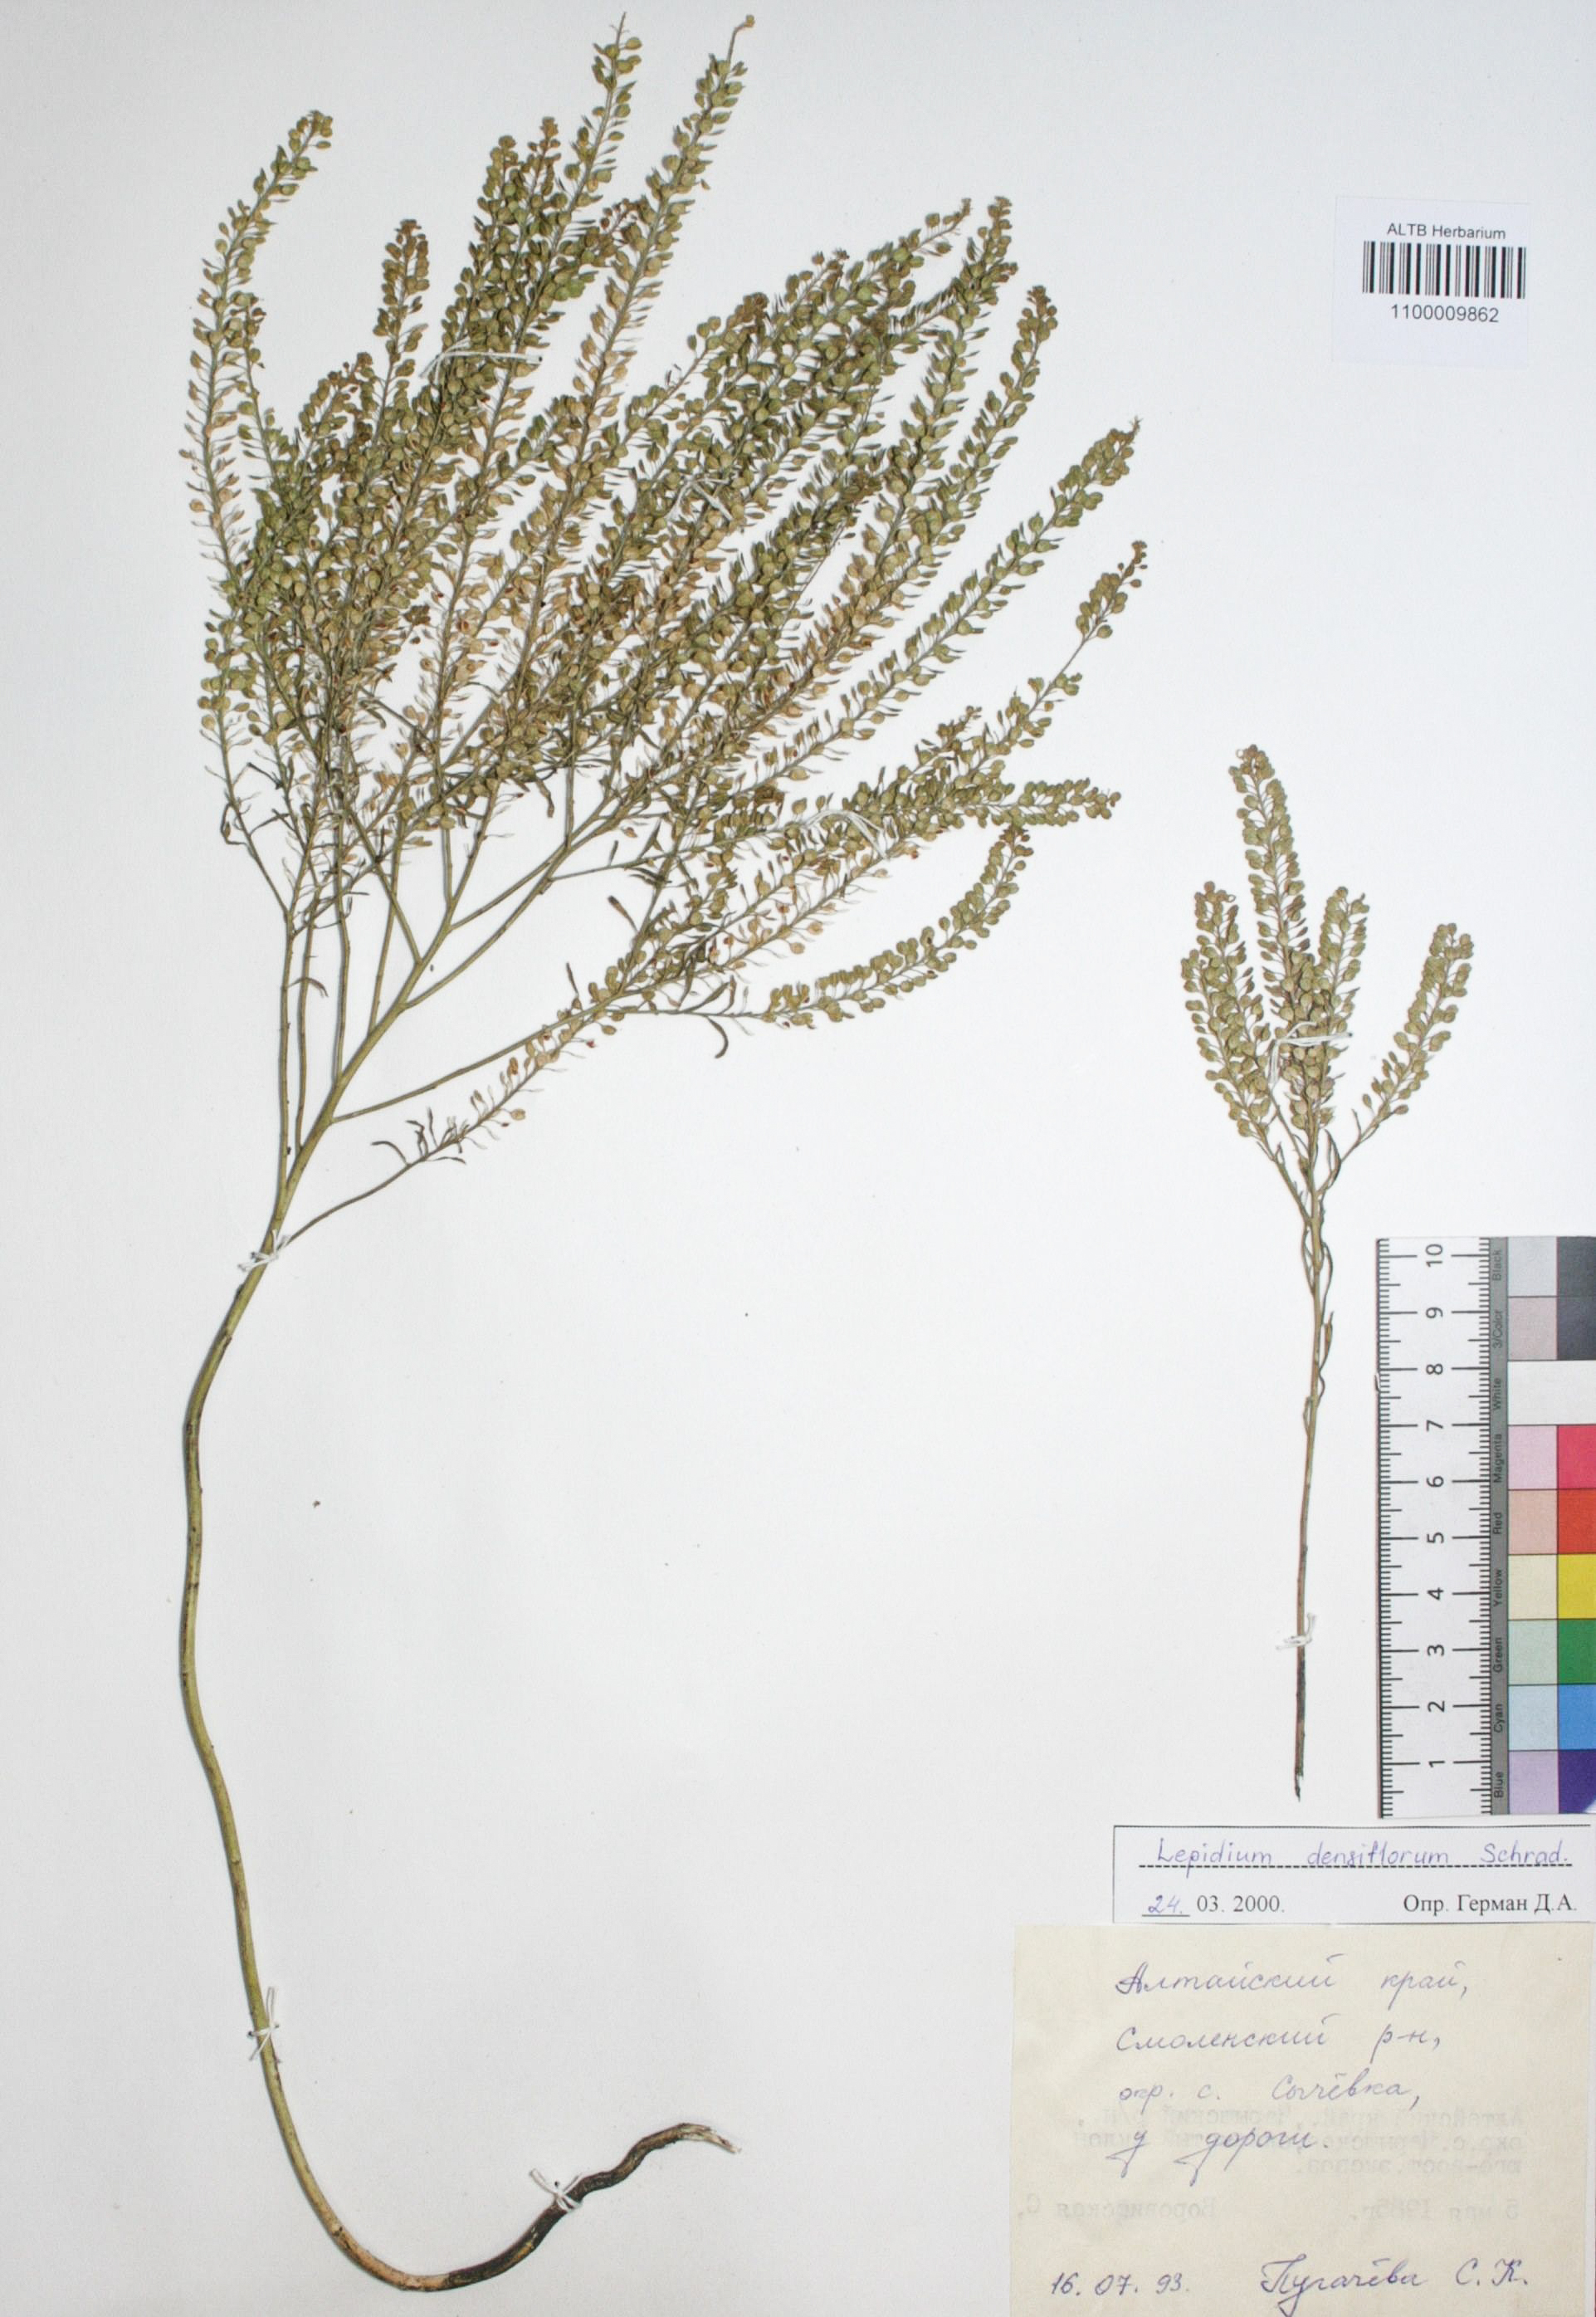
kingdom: Plantae
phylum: Tracheophyta
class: Magnoliopsida
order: Brassicales
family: Brassicaceae
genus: Lepidium
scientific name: Lepidium densiflorum
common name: Miner's pepperwort
